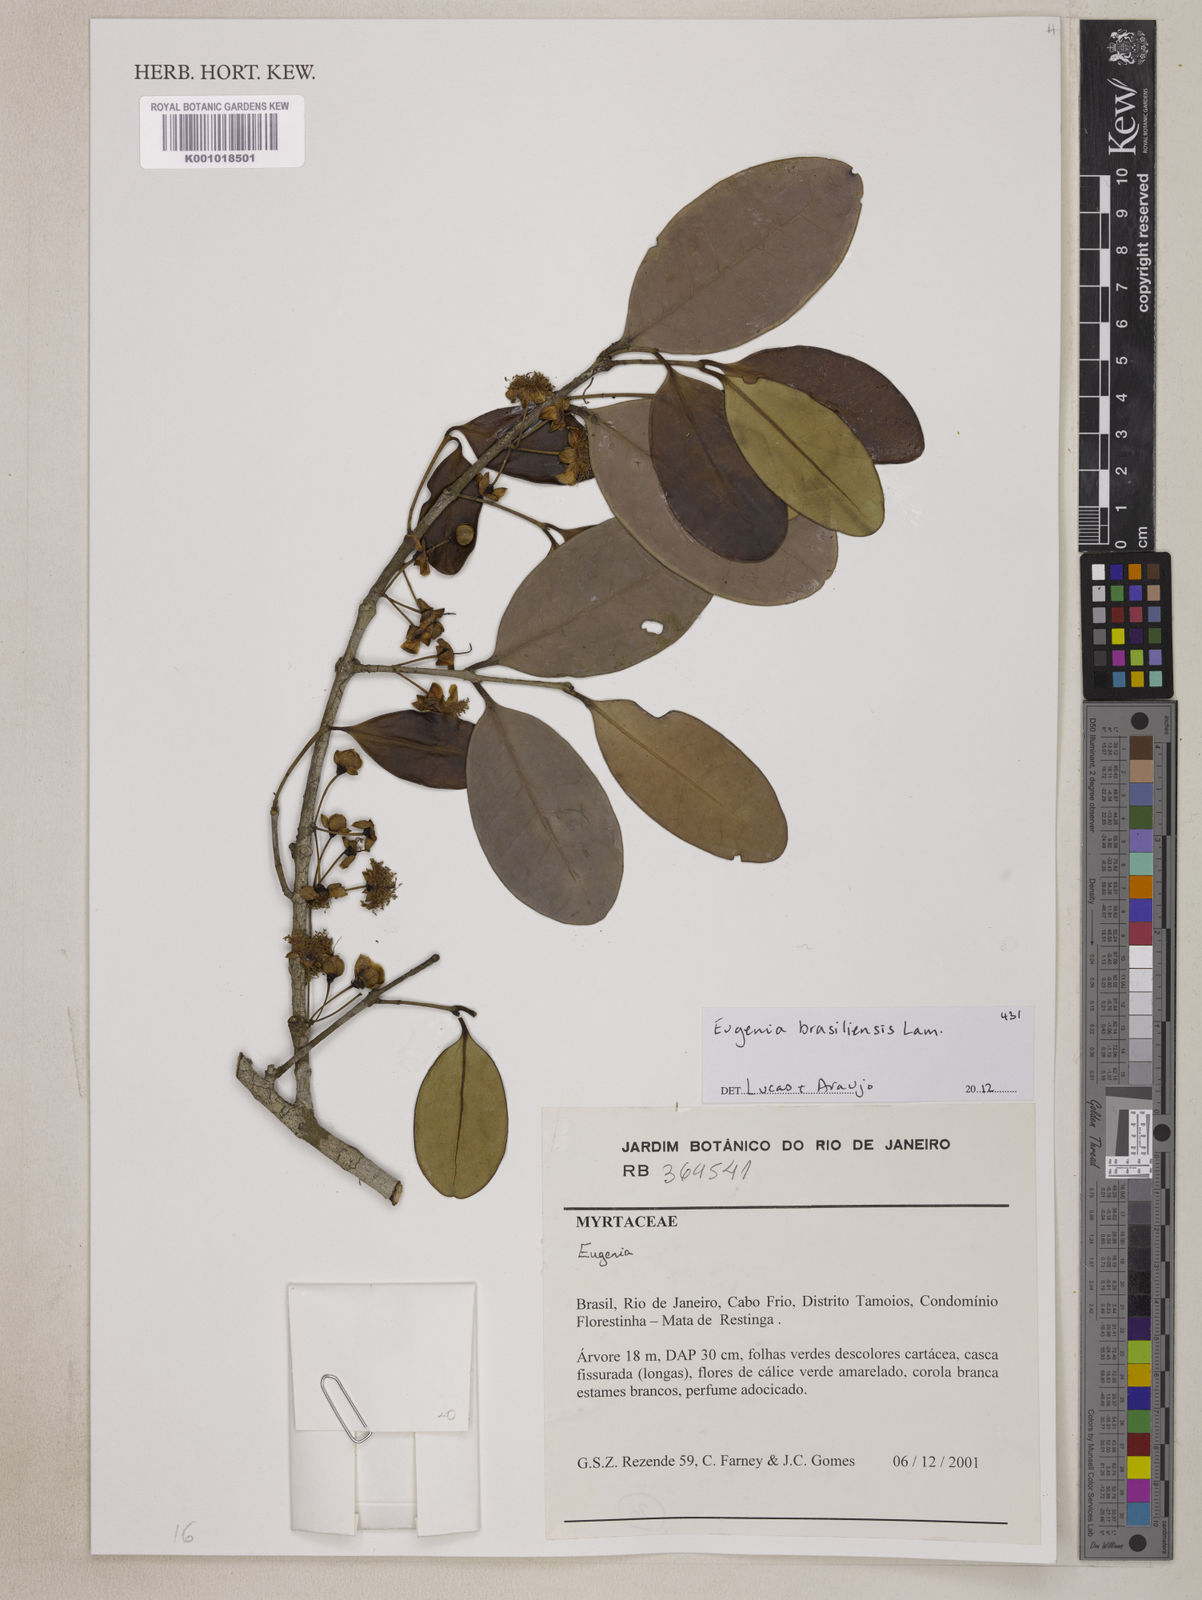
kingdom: Plantae
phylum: Tracheophyta
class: Magnoliopsida
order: Myrtales
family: Myrtaceae
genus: Eugenia
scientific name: Eugenia kuekii
